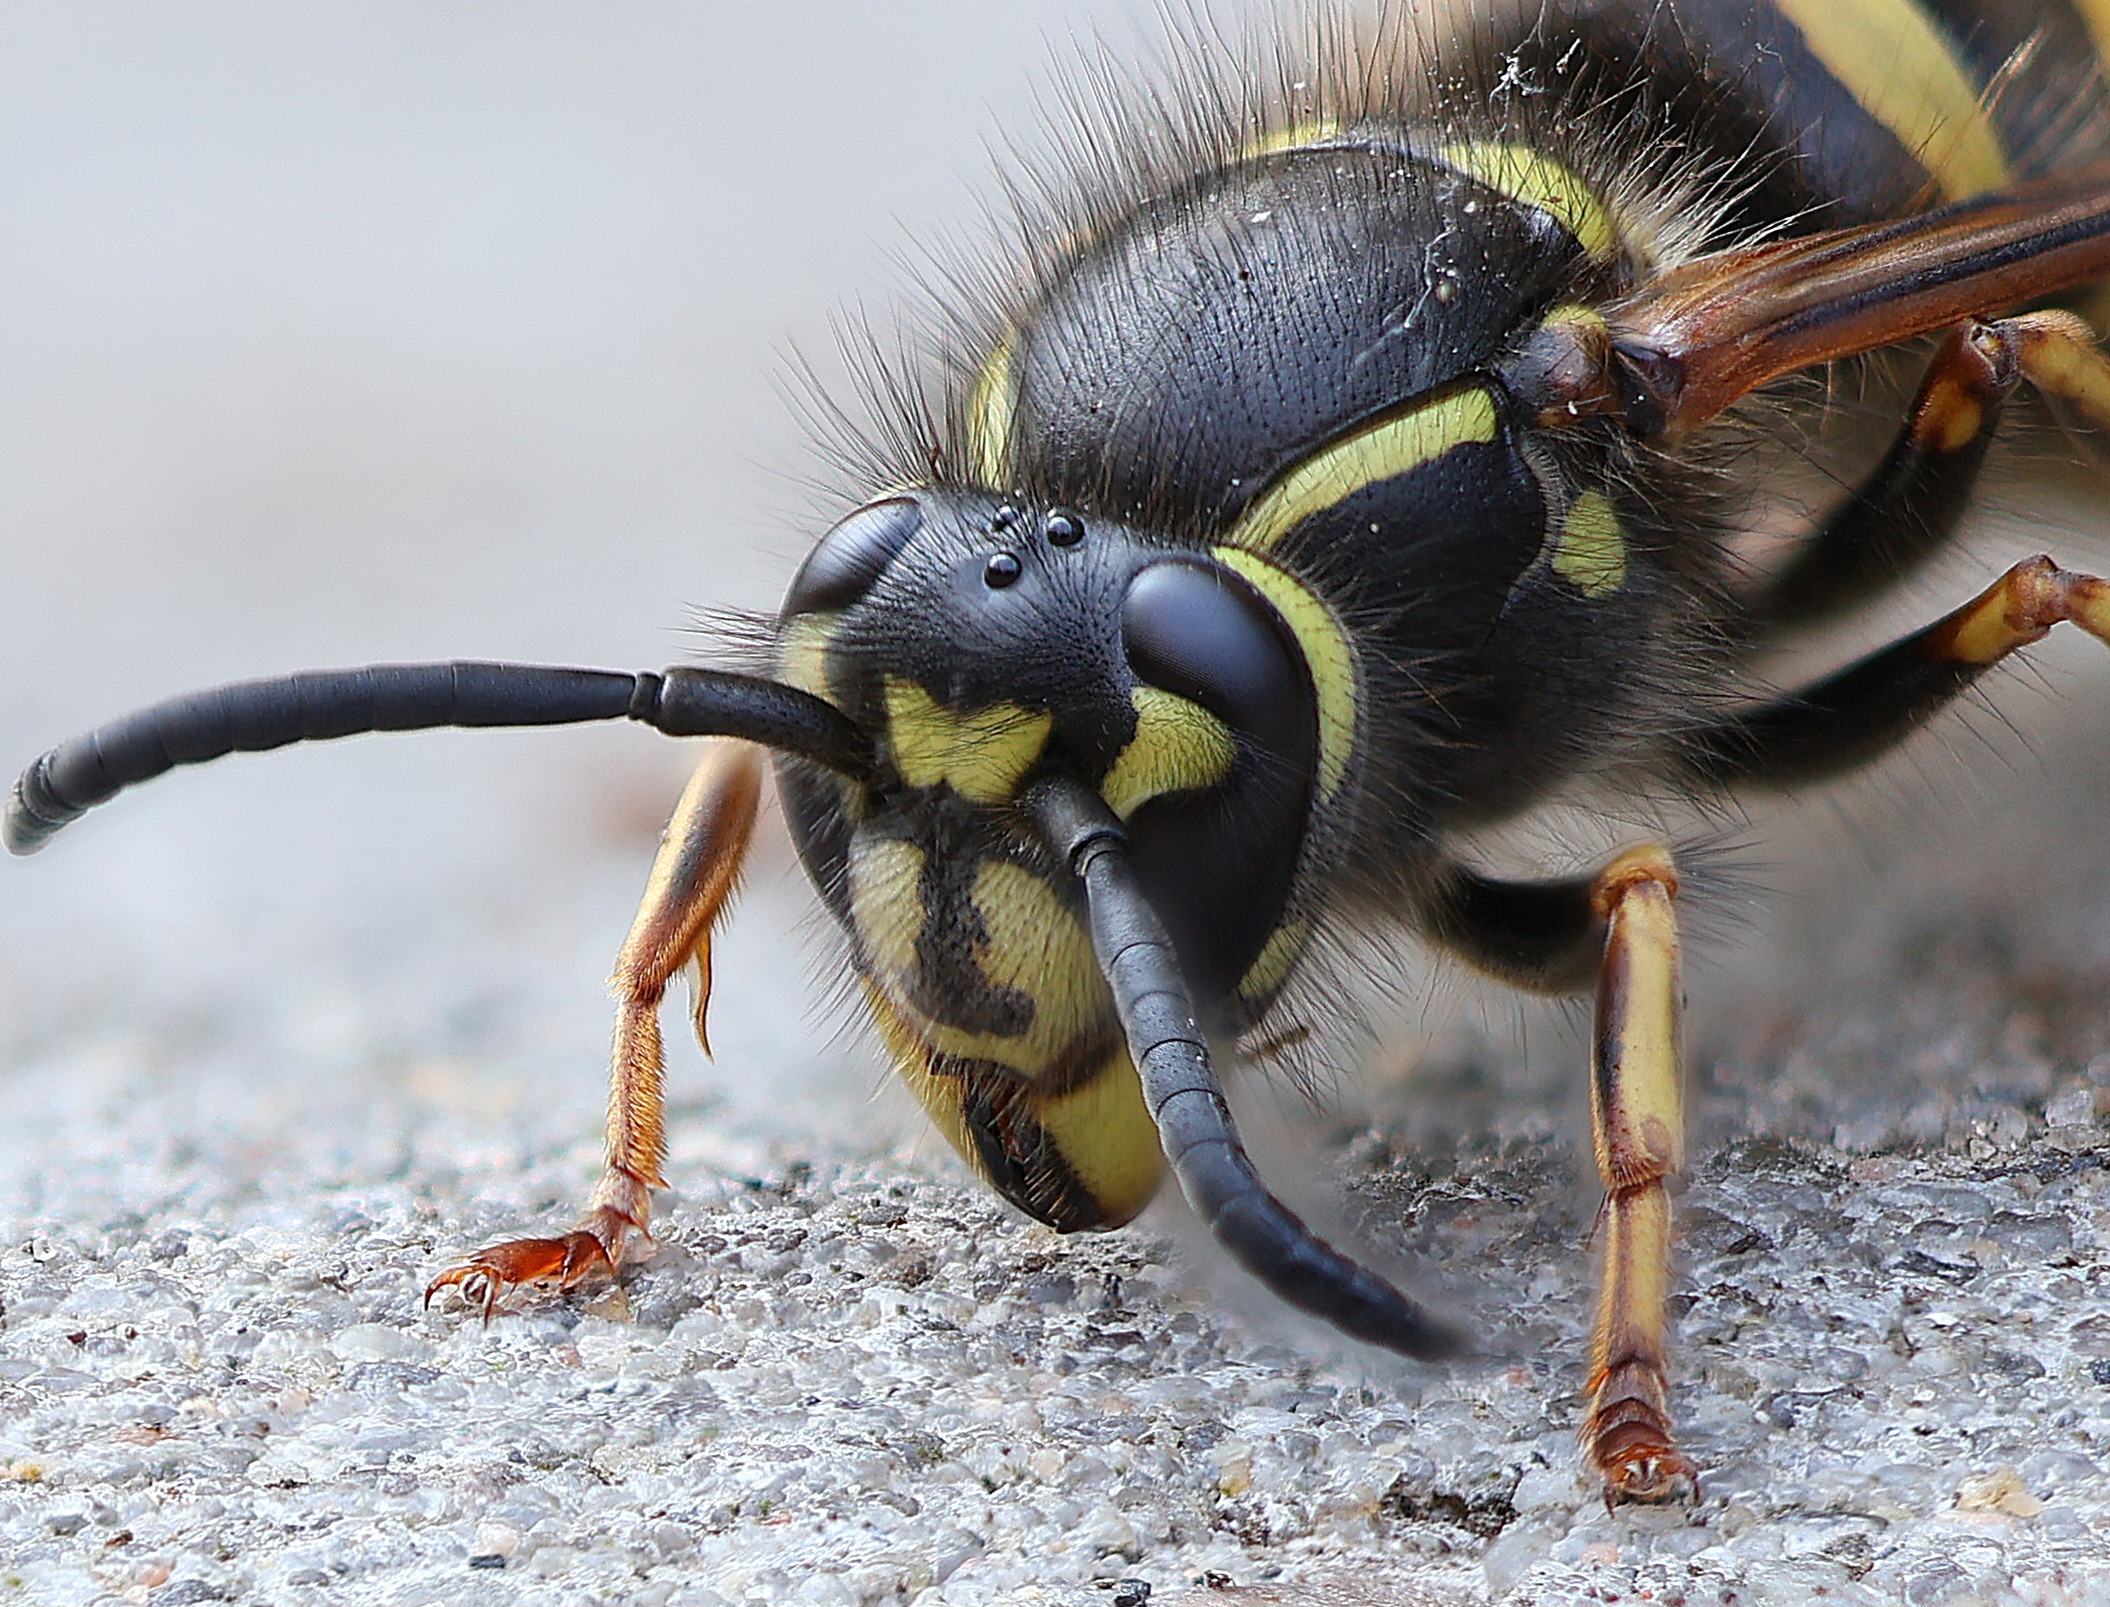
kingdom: Animalia
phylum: Arthropoda
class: Insecta
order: Hymenoptera
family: Vespidae
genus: Vespula
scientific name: Vespula vulgaris
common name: Almindelig gedehams
